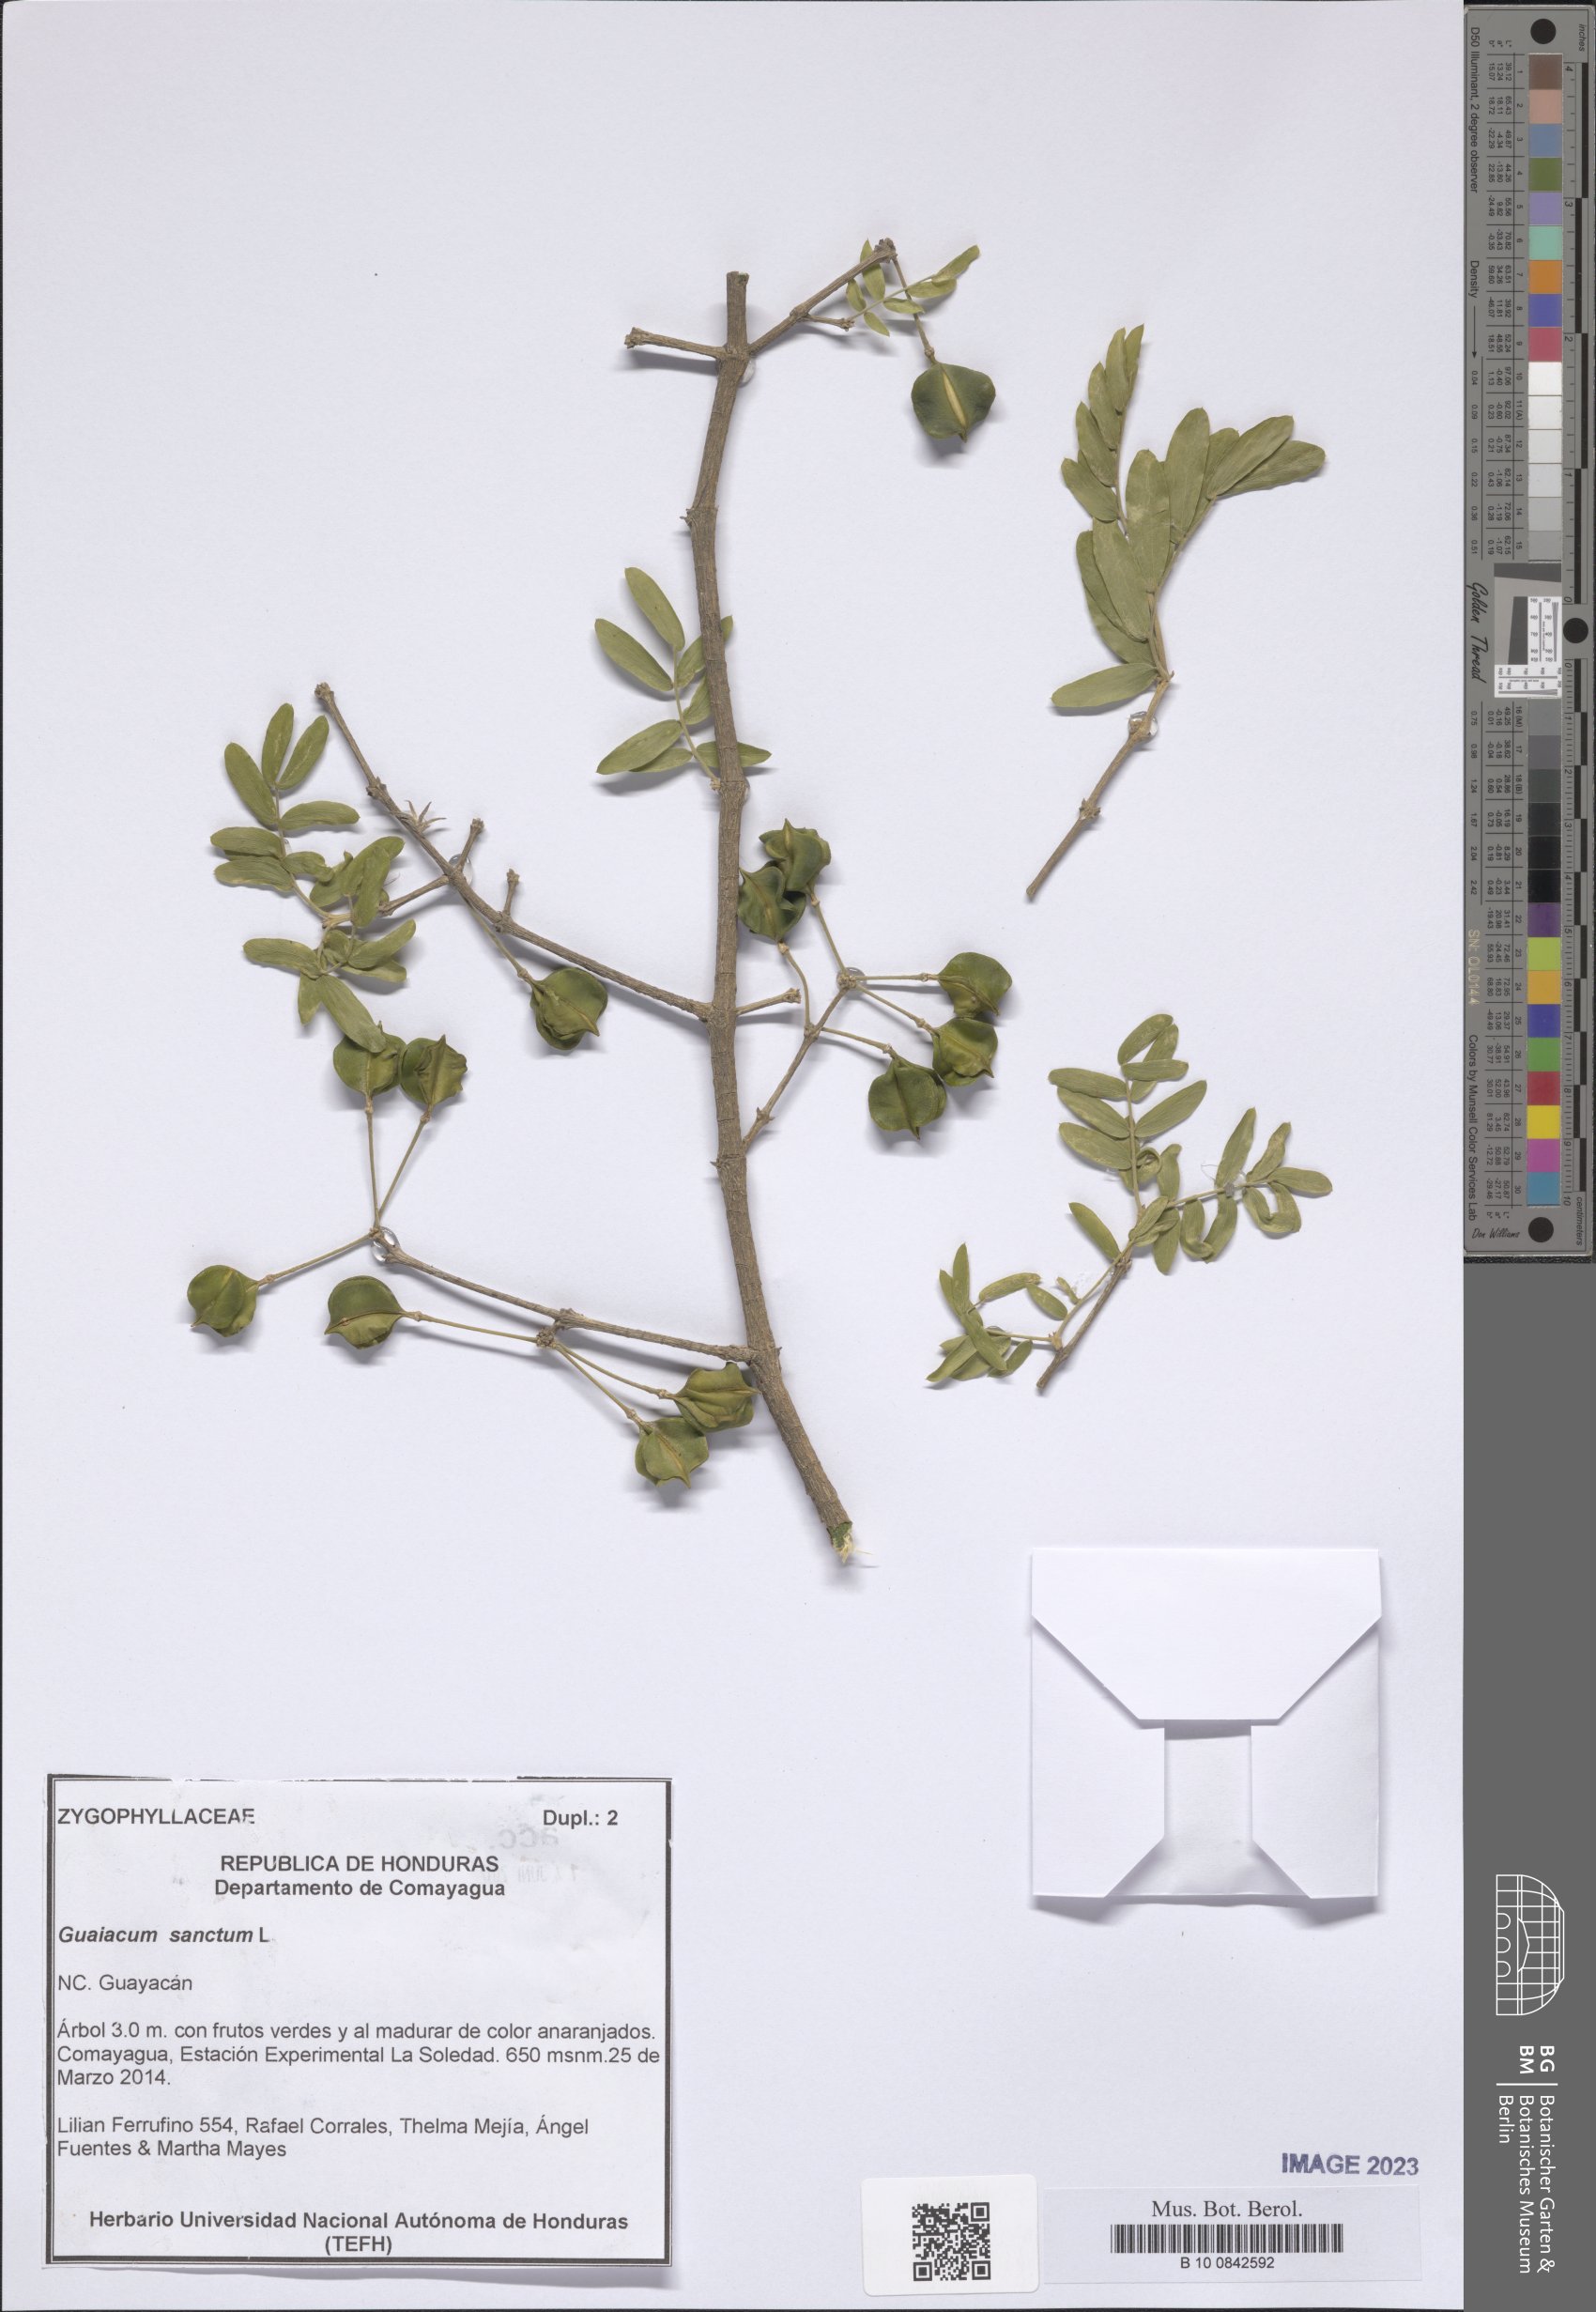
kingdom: Plantae
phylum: Tracheophyta
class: Magnoliopsida
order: Zygophyllales
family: Zygophyllaceae
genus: Guaiacum
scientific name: Guaiacum sanctum
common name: Holywood
